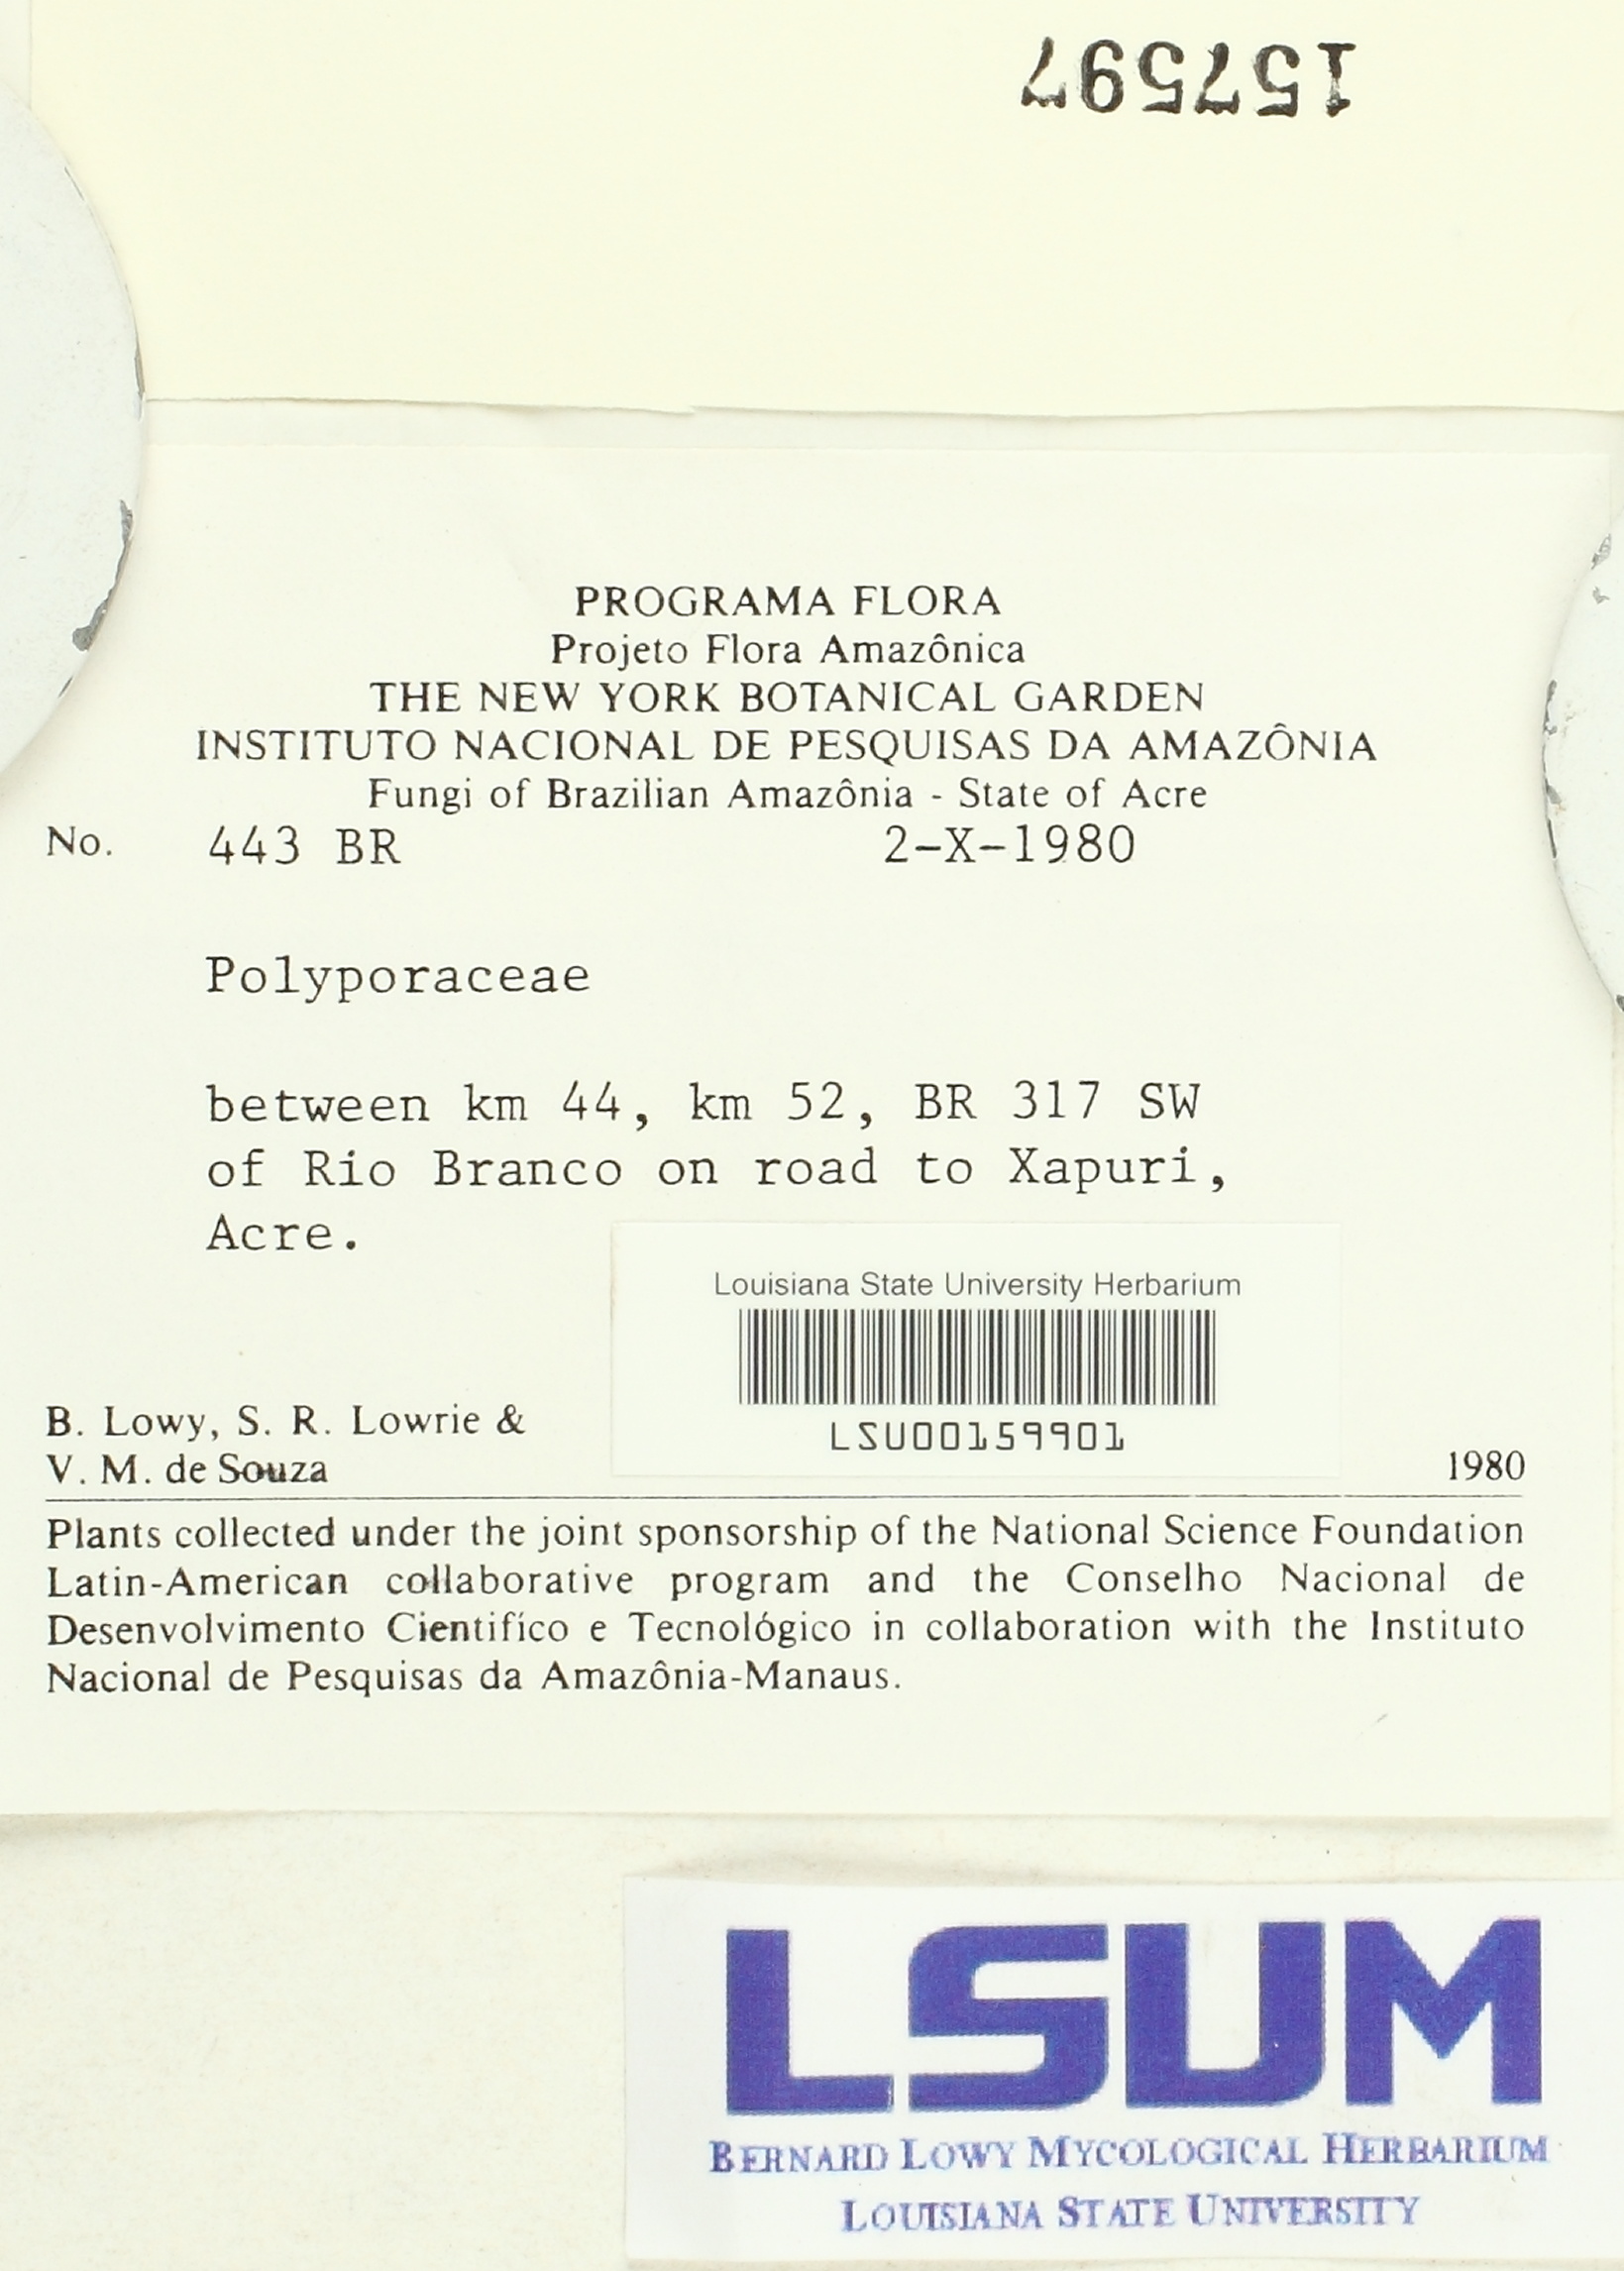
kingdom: Fungi
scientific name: Fungi
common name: Fungi
